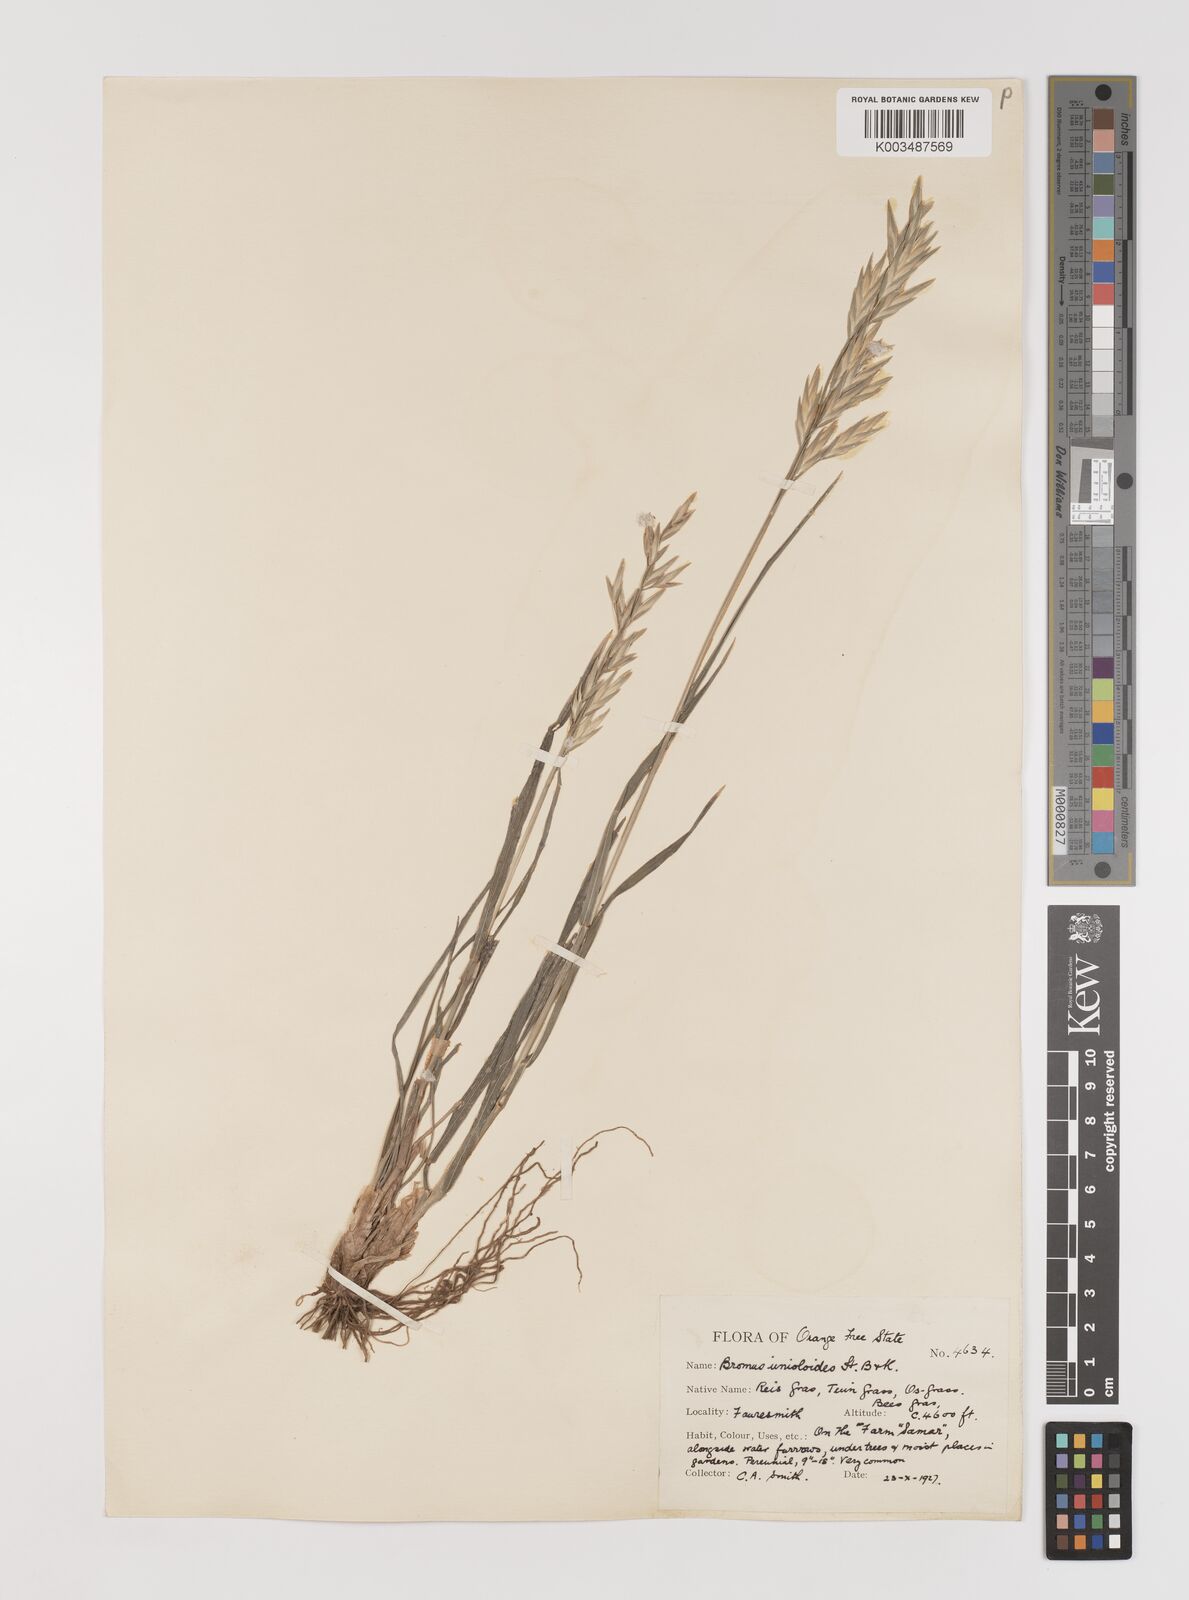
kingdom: Plantae
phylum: Tracheophyta
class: Liliopsida
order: Poales
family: Poaceae
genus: Bromus
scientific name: Bromus catharticus
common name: Rescuegrass
